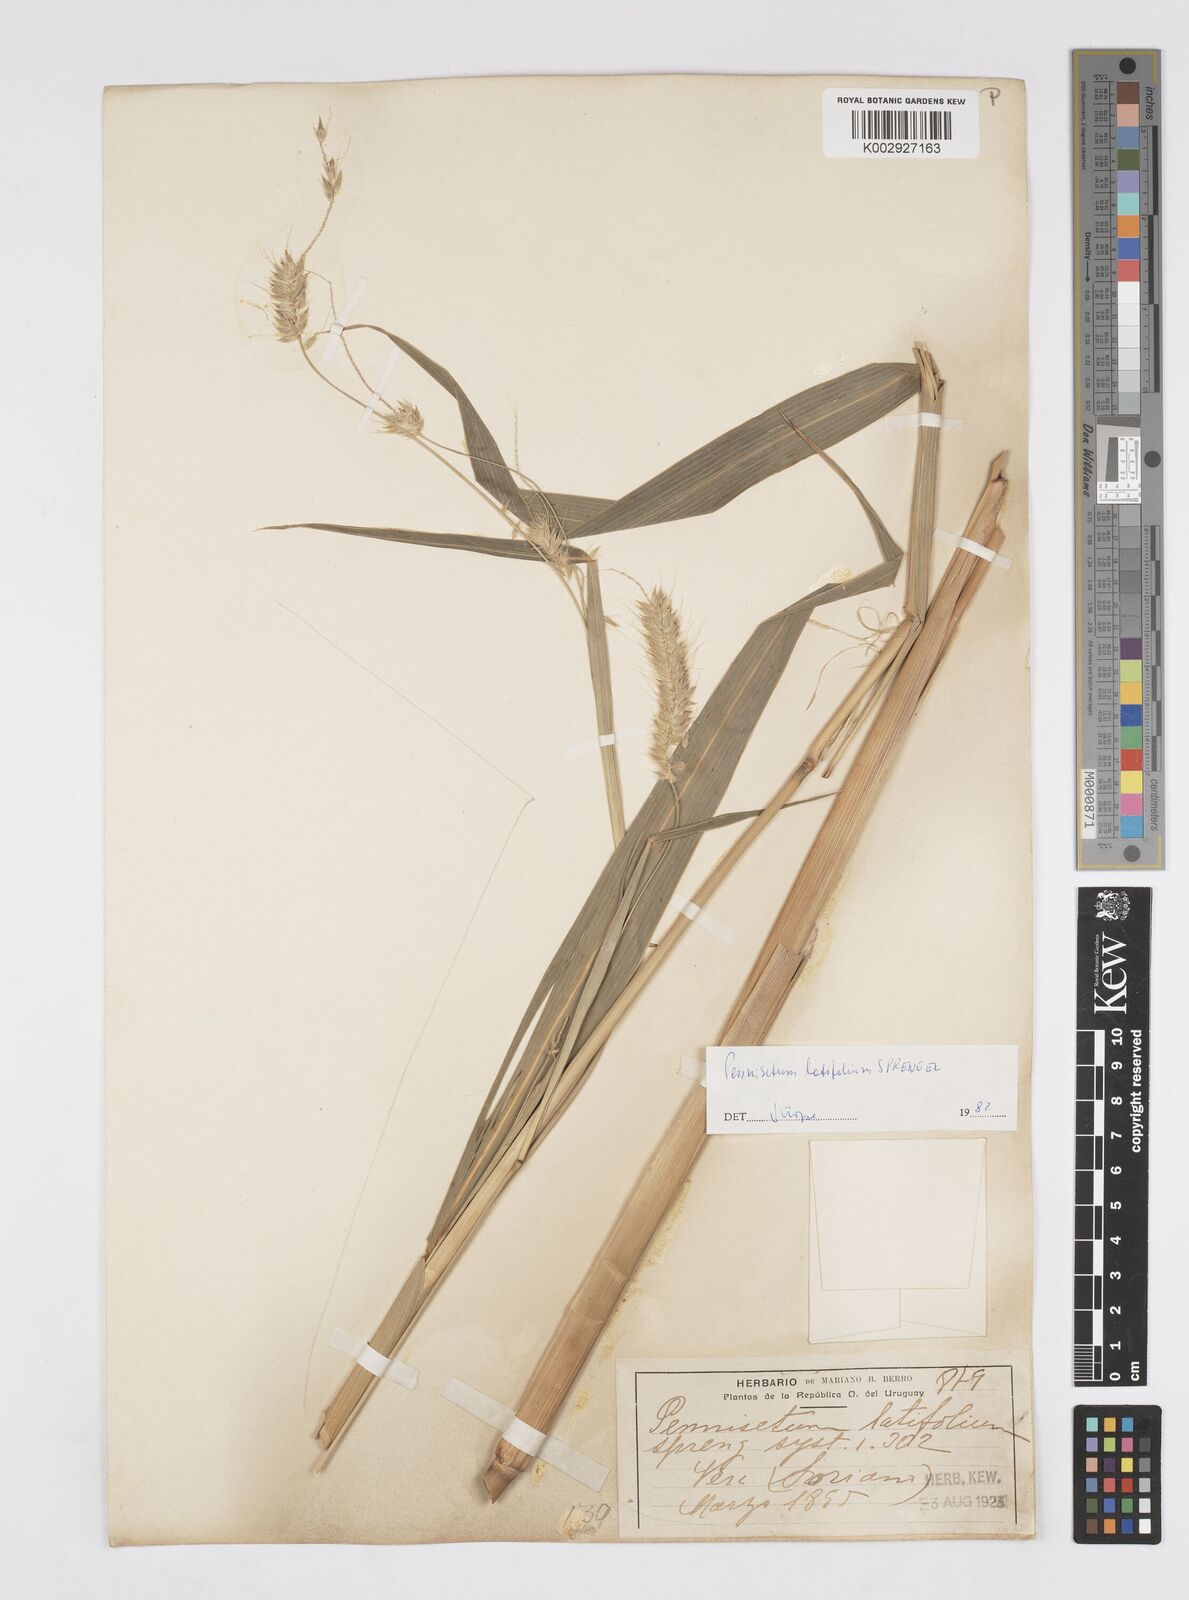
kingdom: Plantae
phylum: Tracheophyta
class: Liliopsida
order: Poales
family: Poaceae
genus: Cenchrus
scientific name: Cenchrus latifolius
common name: Sandbur
